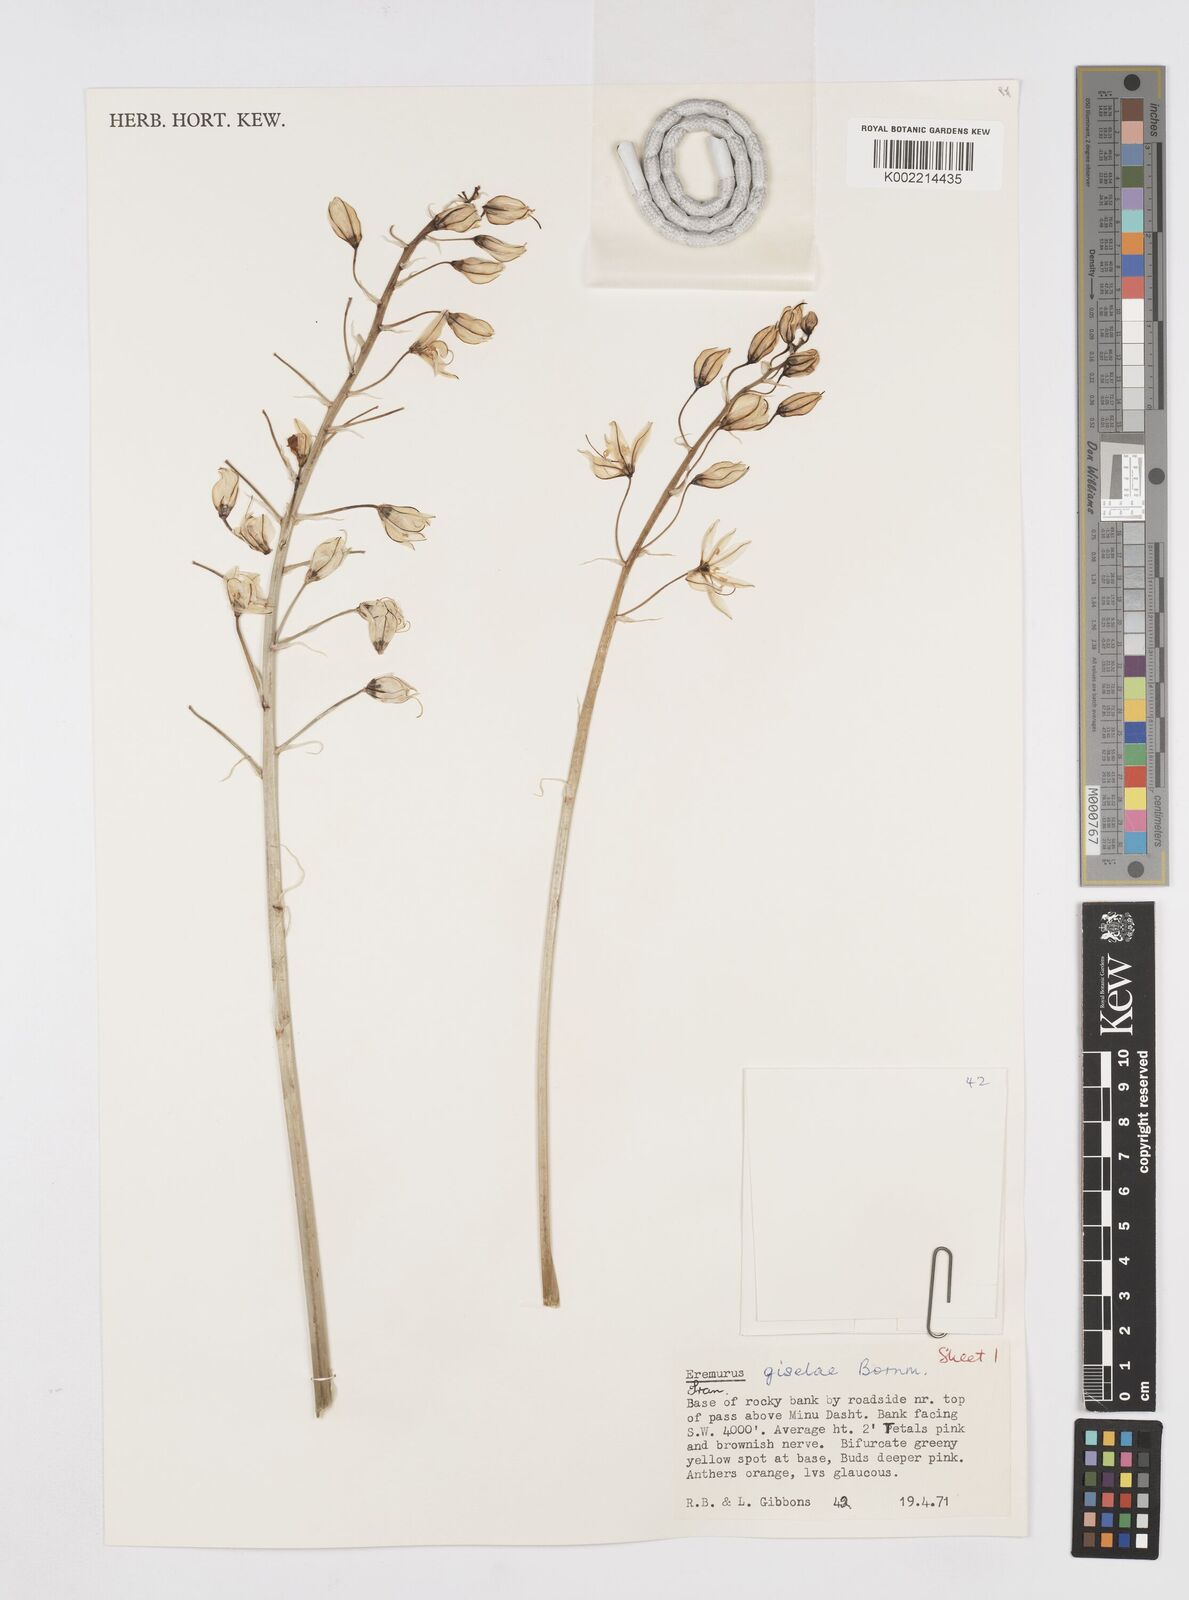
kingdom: Plantae
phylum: Tracheophyta
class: Liliopsida
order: Asparagales
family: Asphodelaceae
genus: Eremurus
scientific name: Eremurus kopet-daghensis
